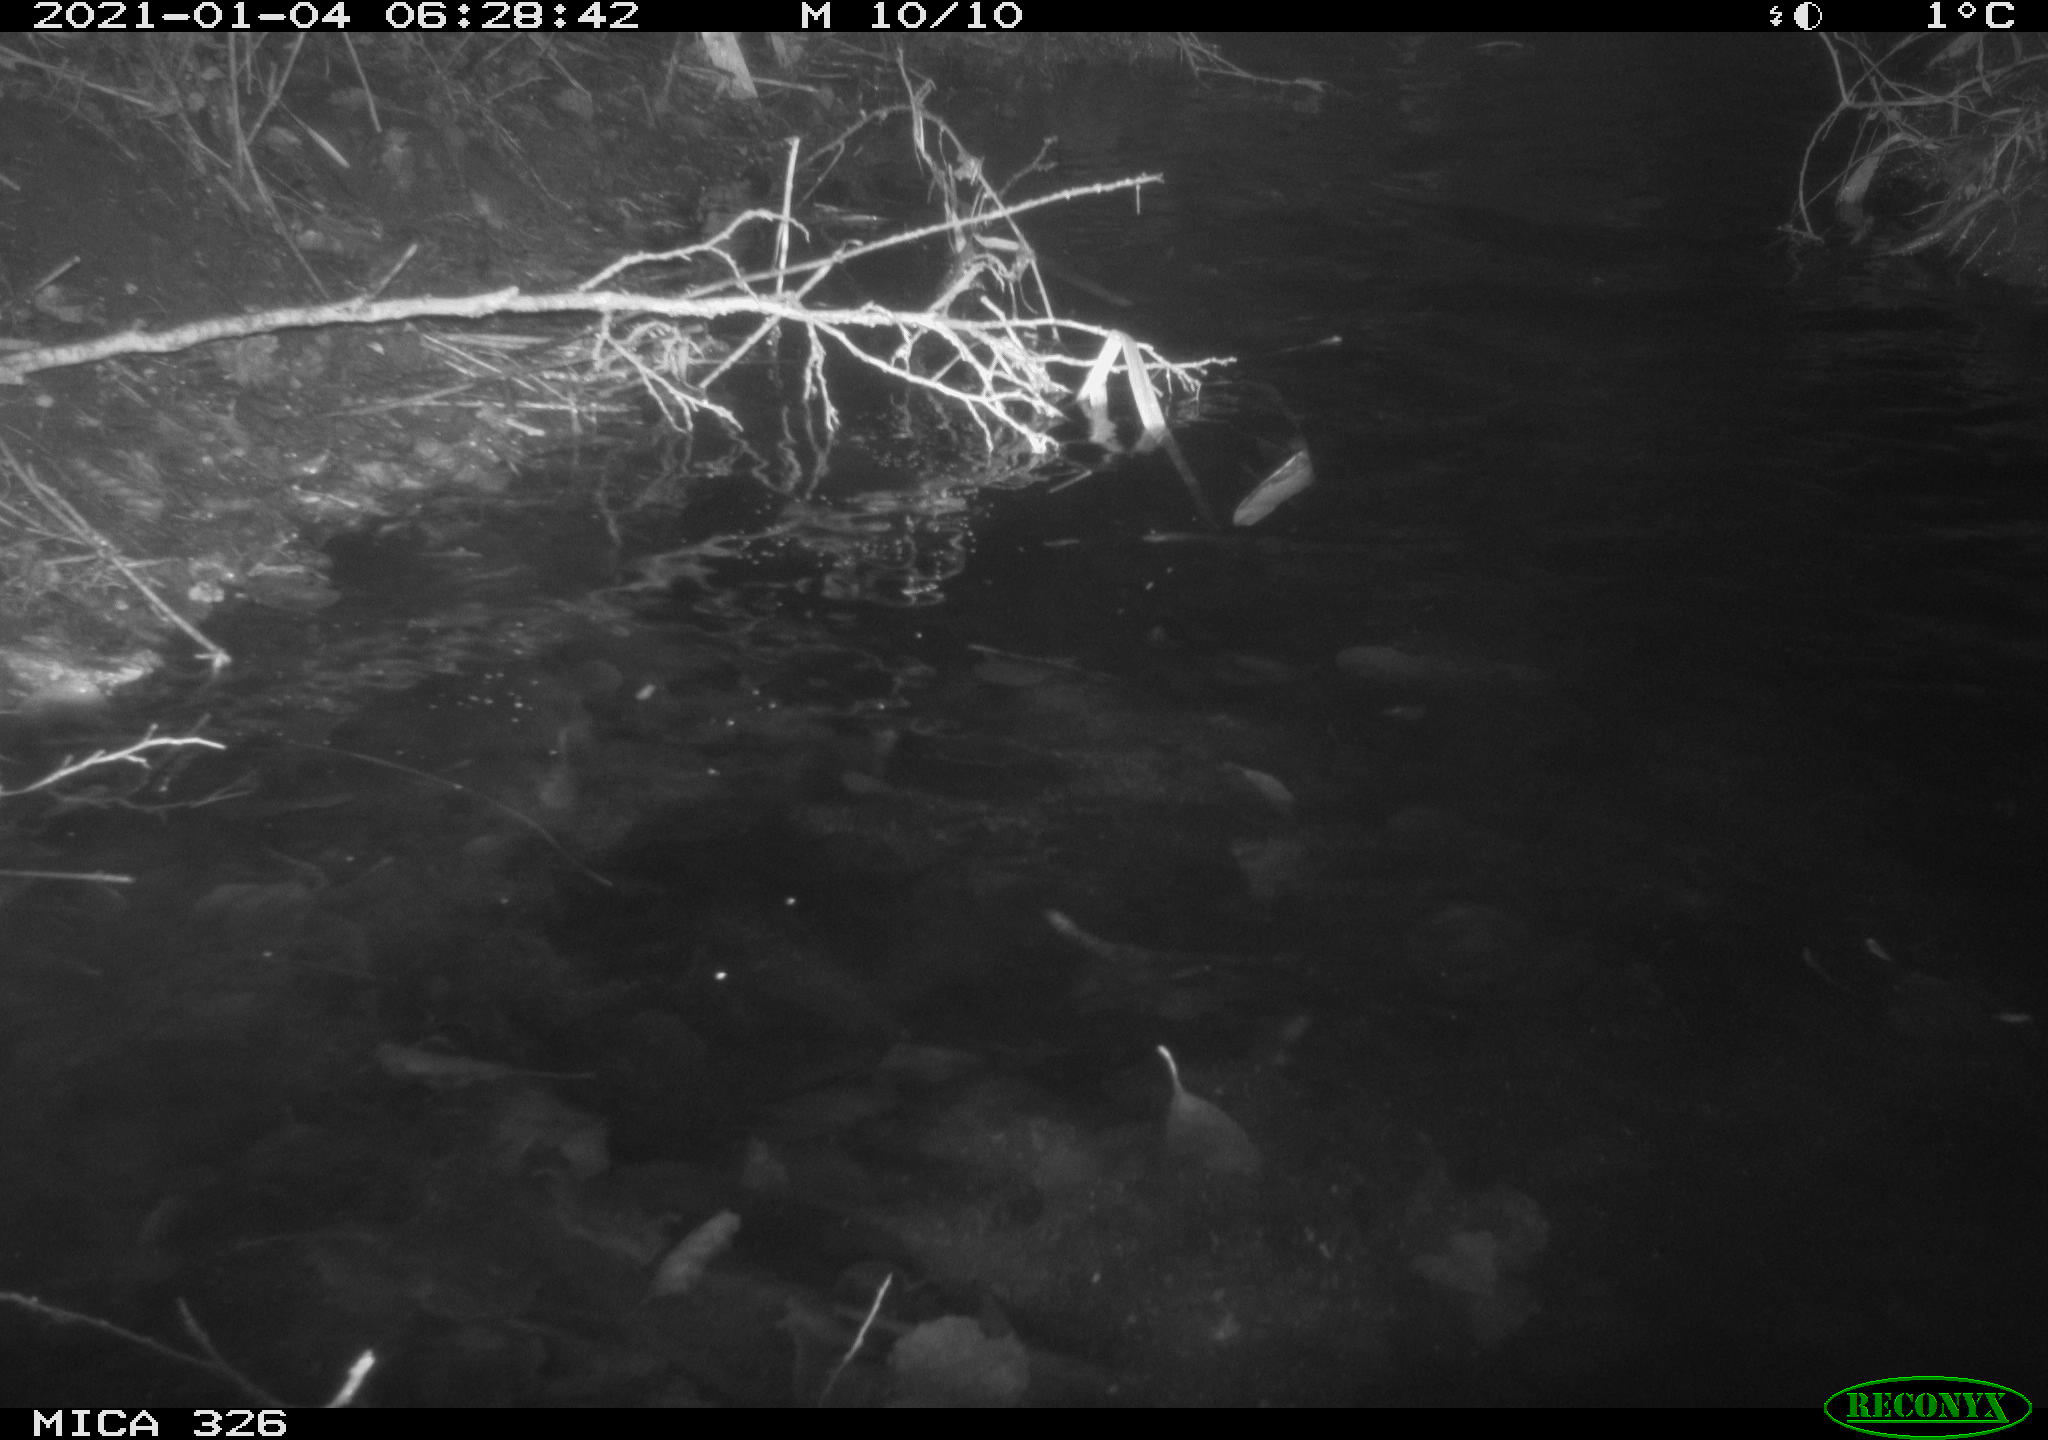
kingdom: Animalia
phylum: Chordata
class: Mammalia
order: Carnivora
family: Mustelidae
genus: Lutra
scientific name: Lutra lutra
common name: European otter
